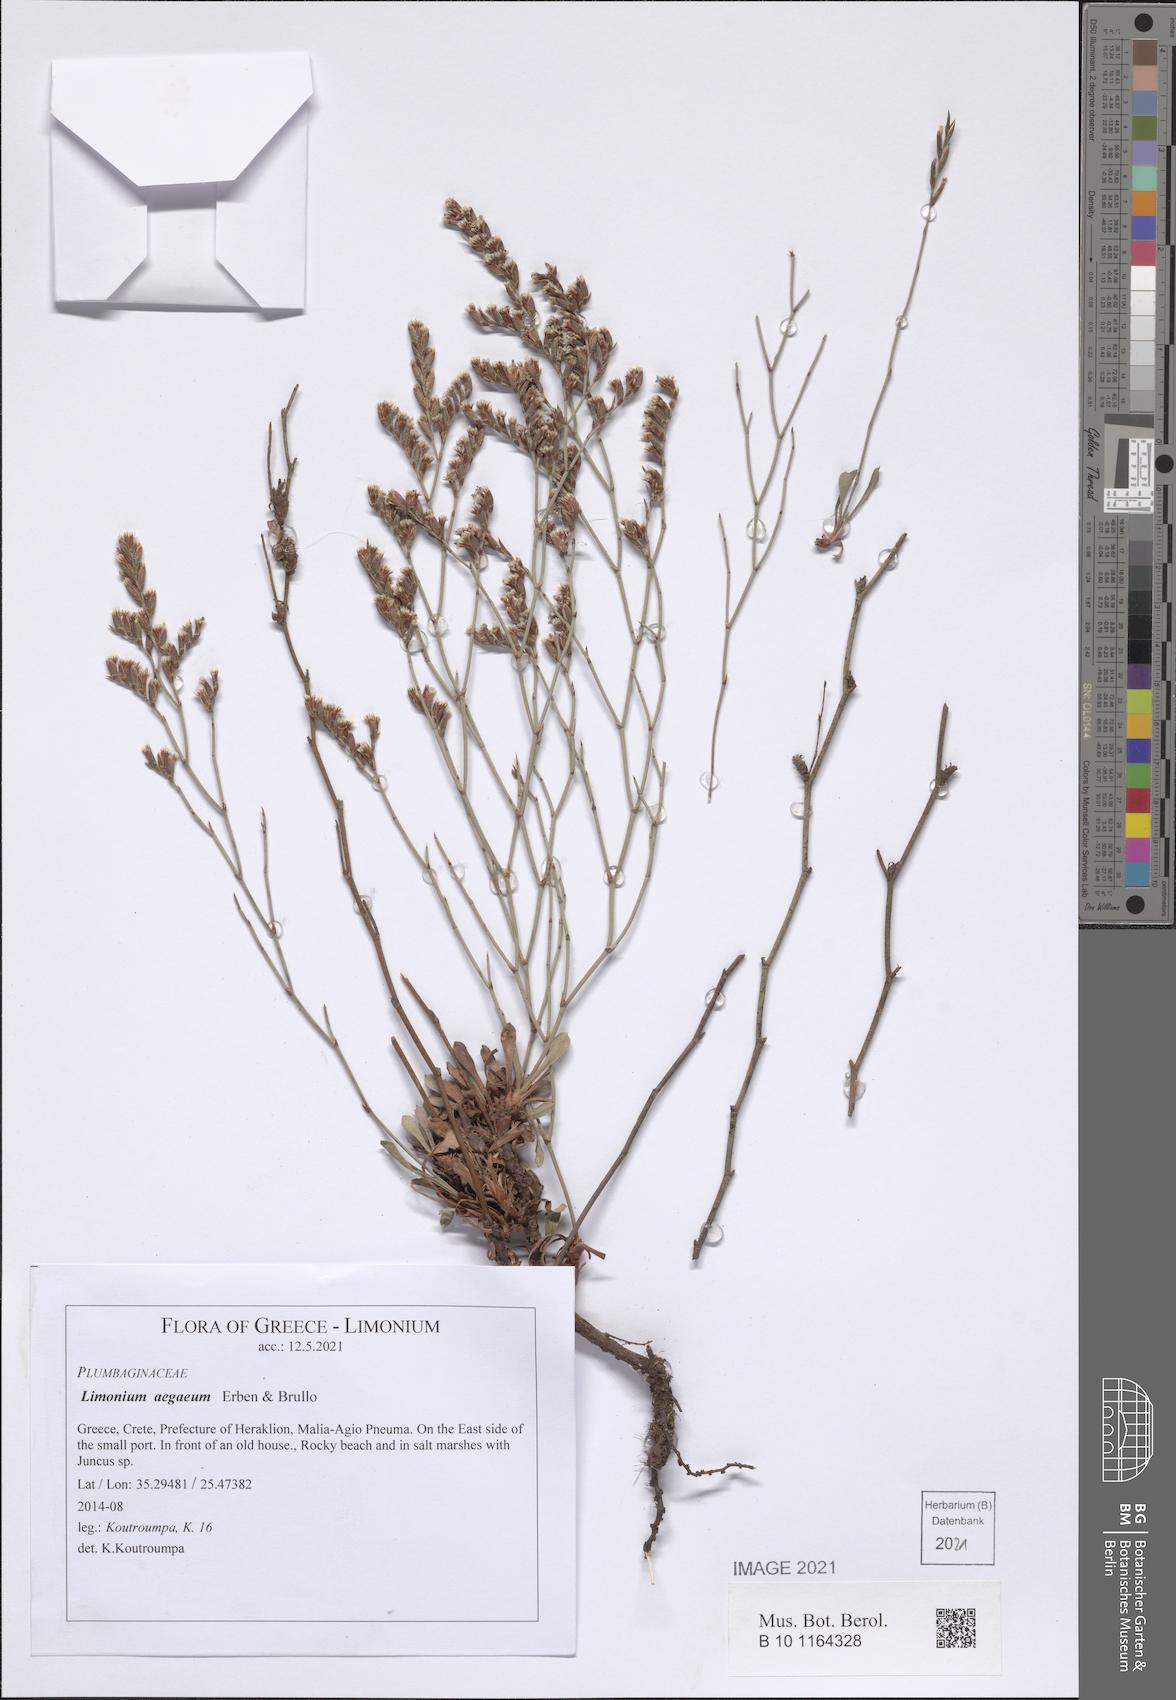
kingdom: Plantae
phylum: Tracheophyta
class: Magnoliopsida
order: Caryophyllales
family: Plumbaginaceae
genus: Limonium
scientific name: Limonium aegaeum
